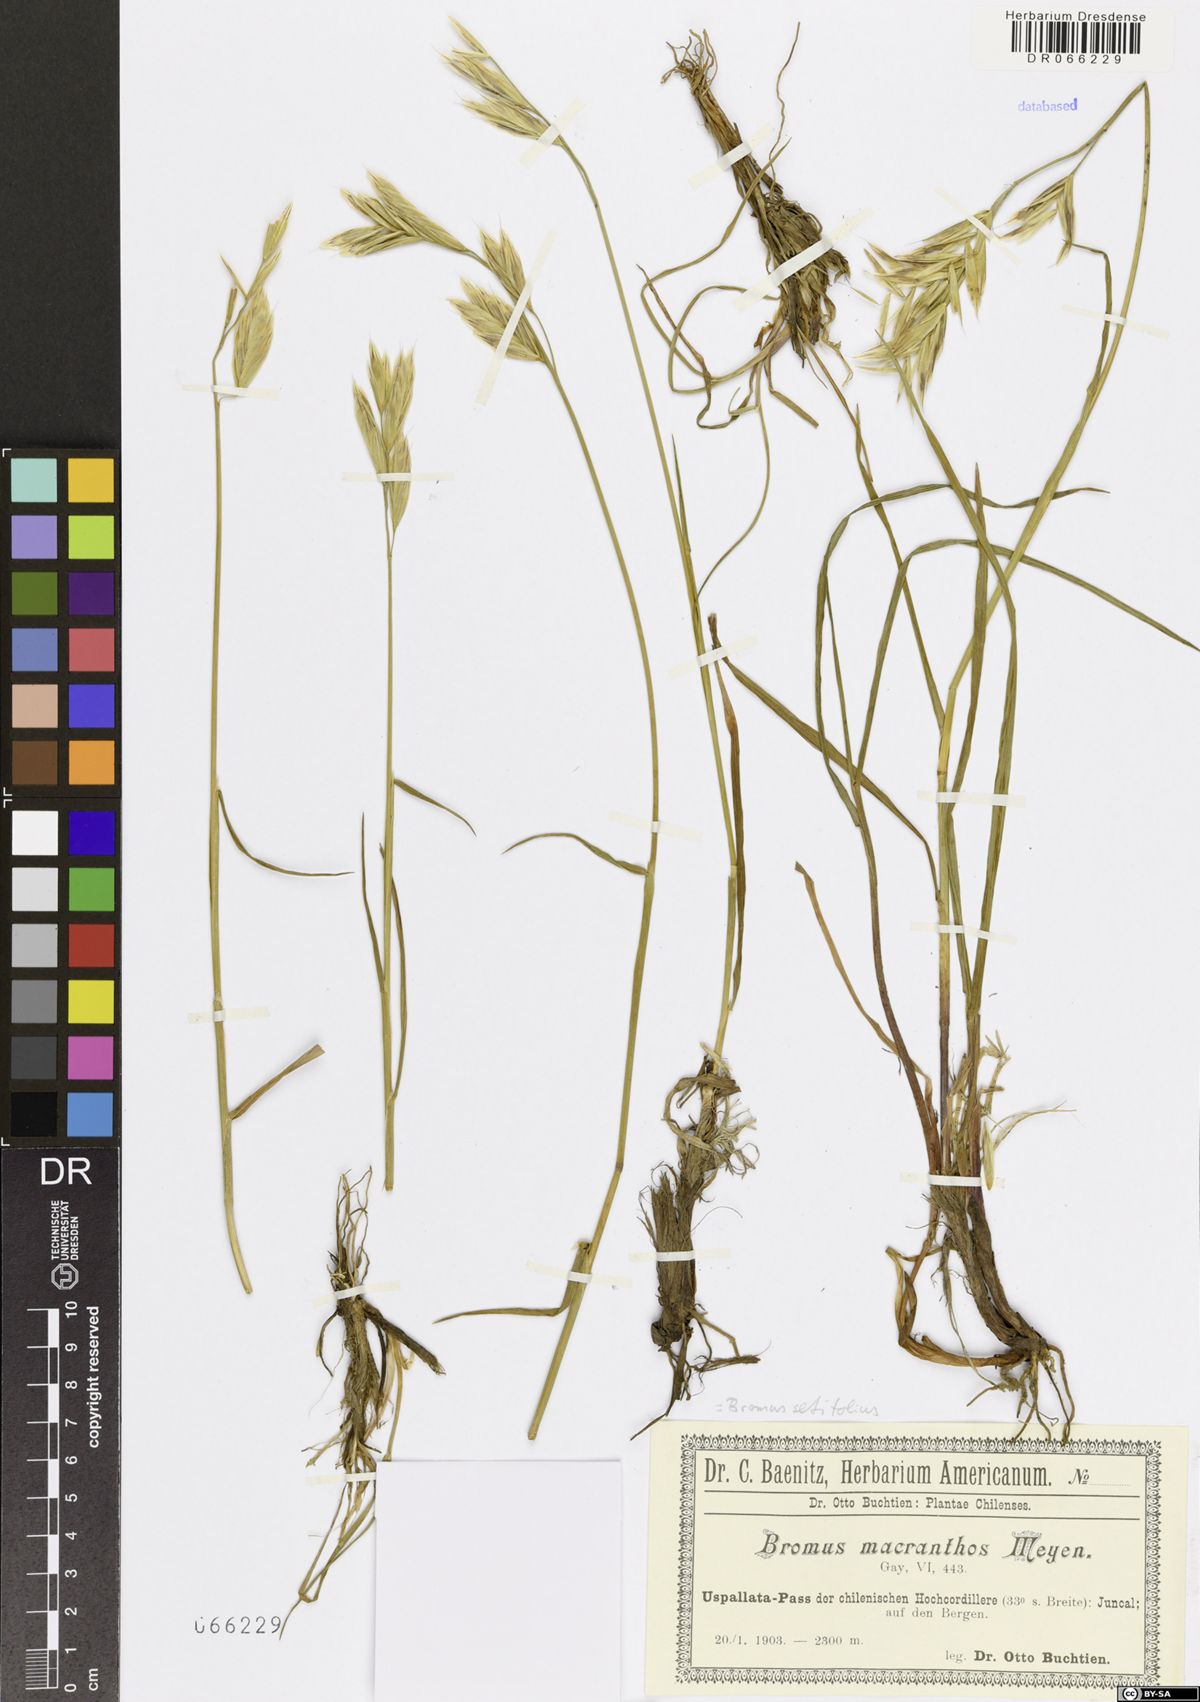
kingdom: Plantae
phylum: Tracheophyta
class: Liliopsida
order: Poales
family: Poaceae
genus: Bromus
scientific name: Bromus setifolius
